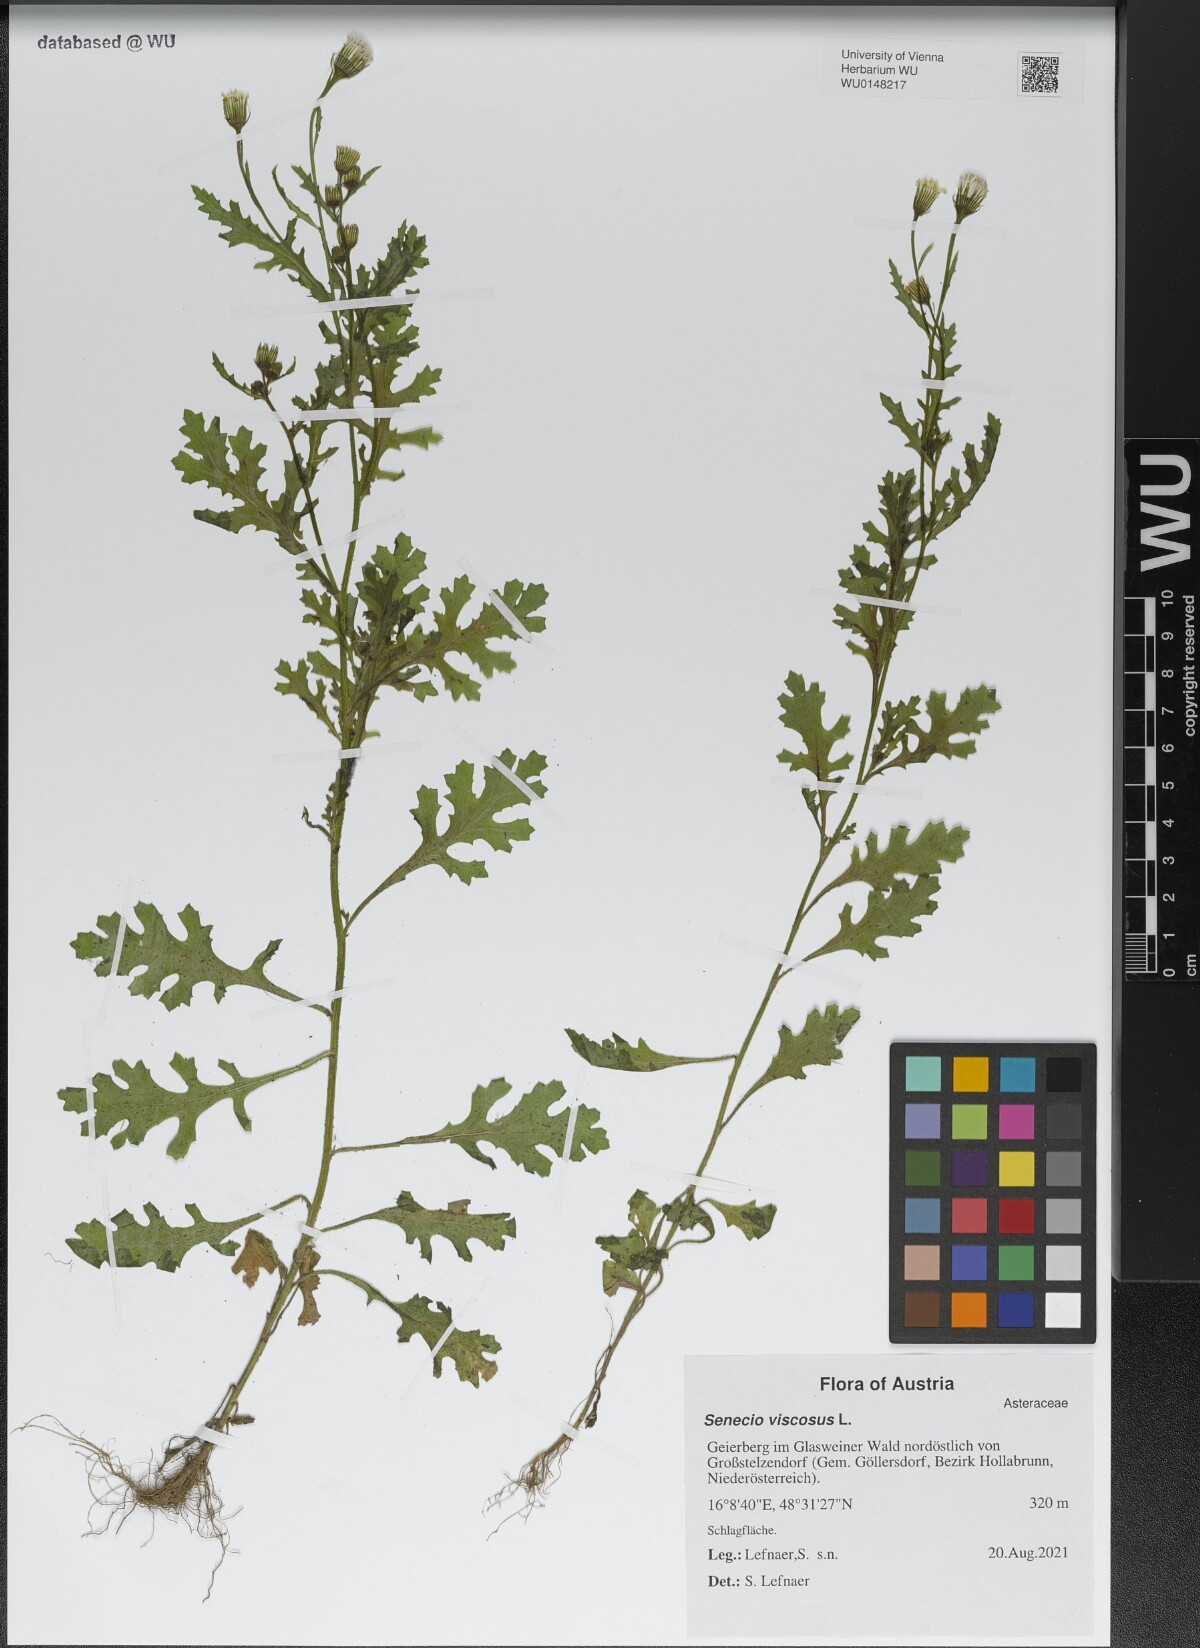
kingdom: Plantae
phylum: Tracheophyta
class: Magnoliopsida
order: Asterales
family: Asteraceae
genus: Senecio
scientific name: Senecio viscosus
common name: Sticky groundsel
